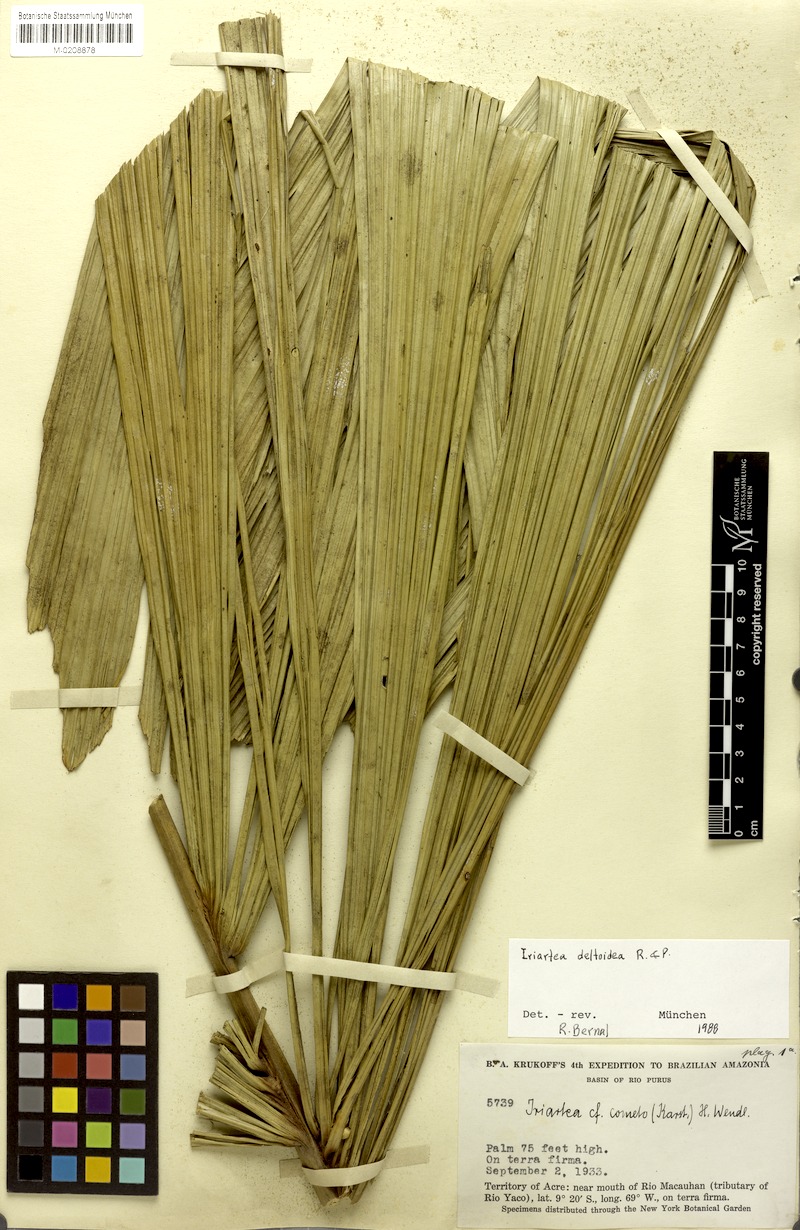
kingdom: Plantae
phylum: Tracheophyta
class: Liliopsida
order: Arecales
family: Arecaceae
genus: Iriartea
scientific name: Iriartea deltoidea
